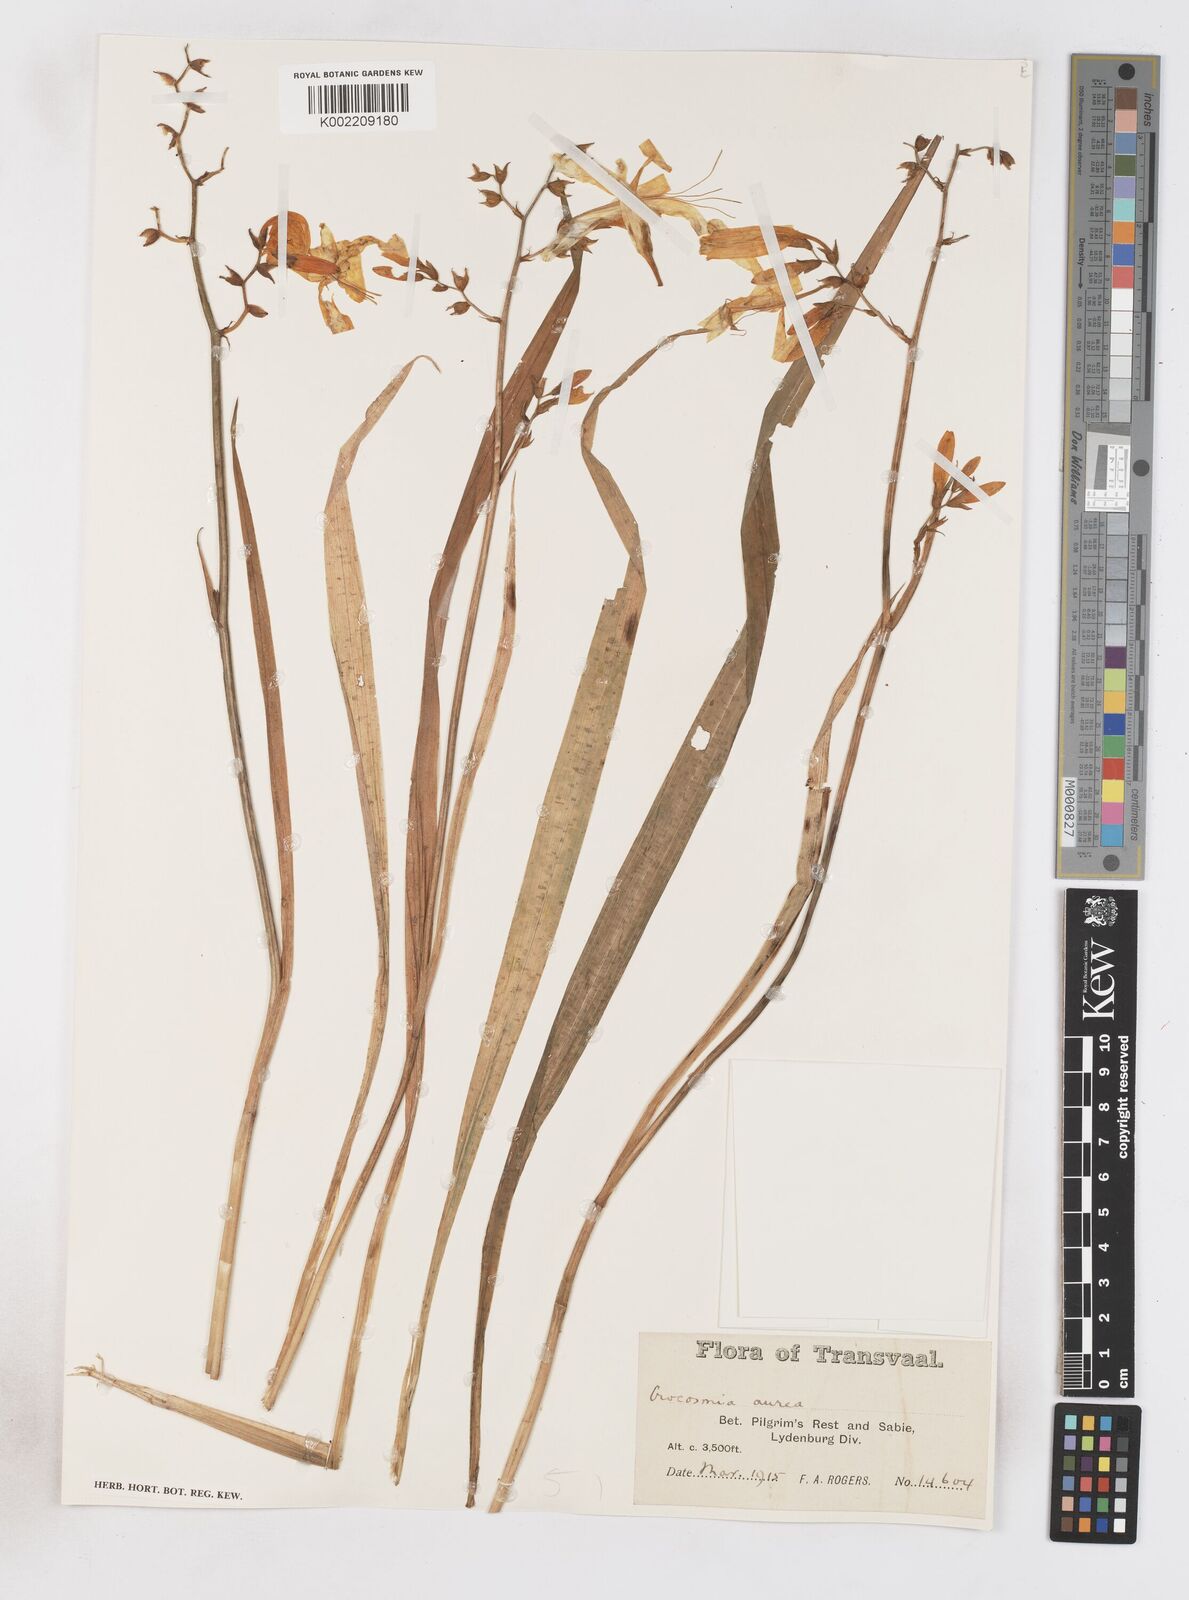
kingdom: Plantae
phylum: Tracheophyta
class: Liliopsida
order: Asparagales
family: Iridaceae
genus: Crocosmia
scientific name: Crocosmia aurea
